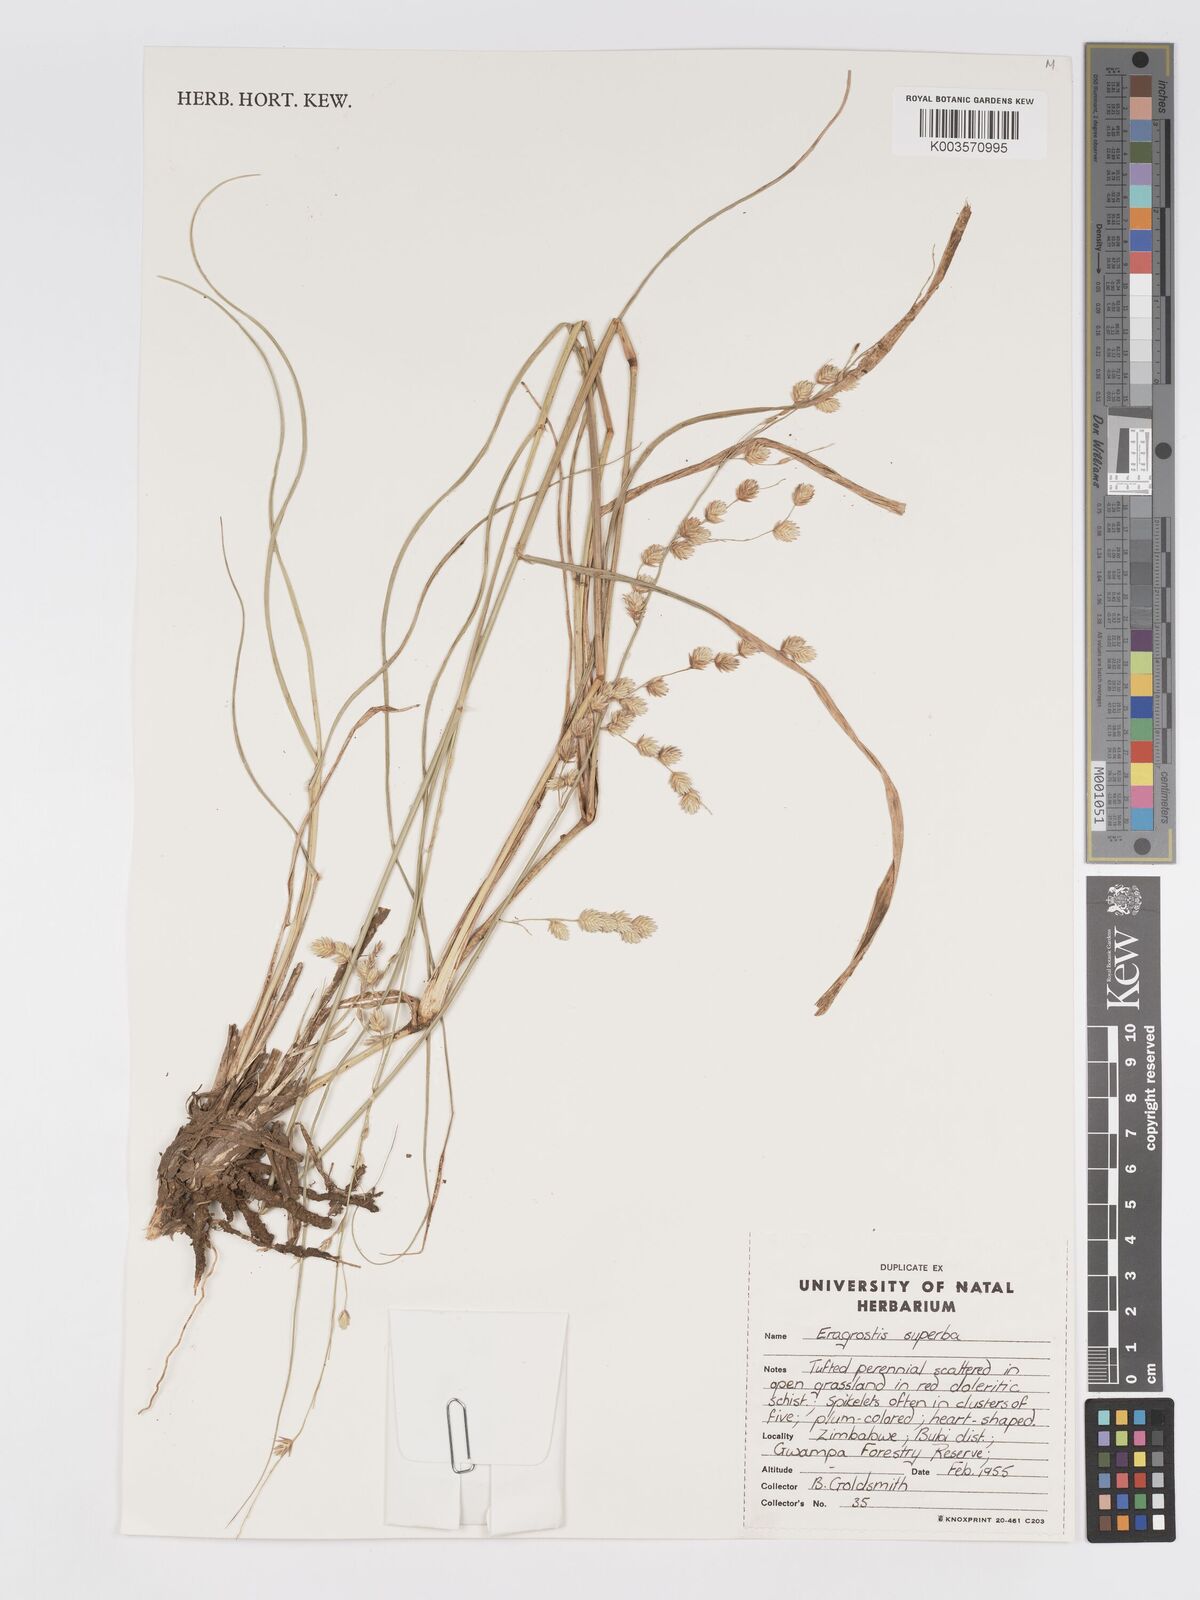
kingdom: Plantae
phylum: Tracheophyta
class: Liliopsida
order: Poales
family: Poaceae
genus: Eragrostis
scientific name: Eragrostis superba
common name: Wilman lovegrass
